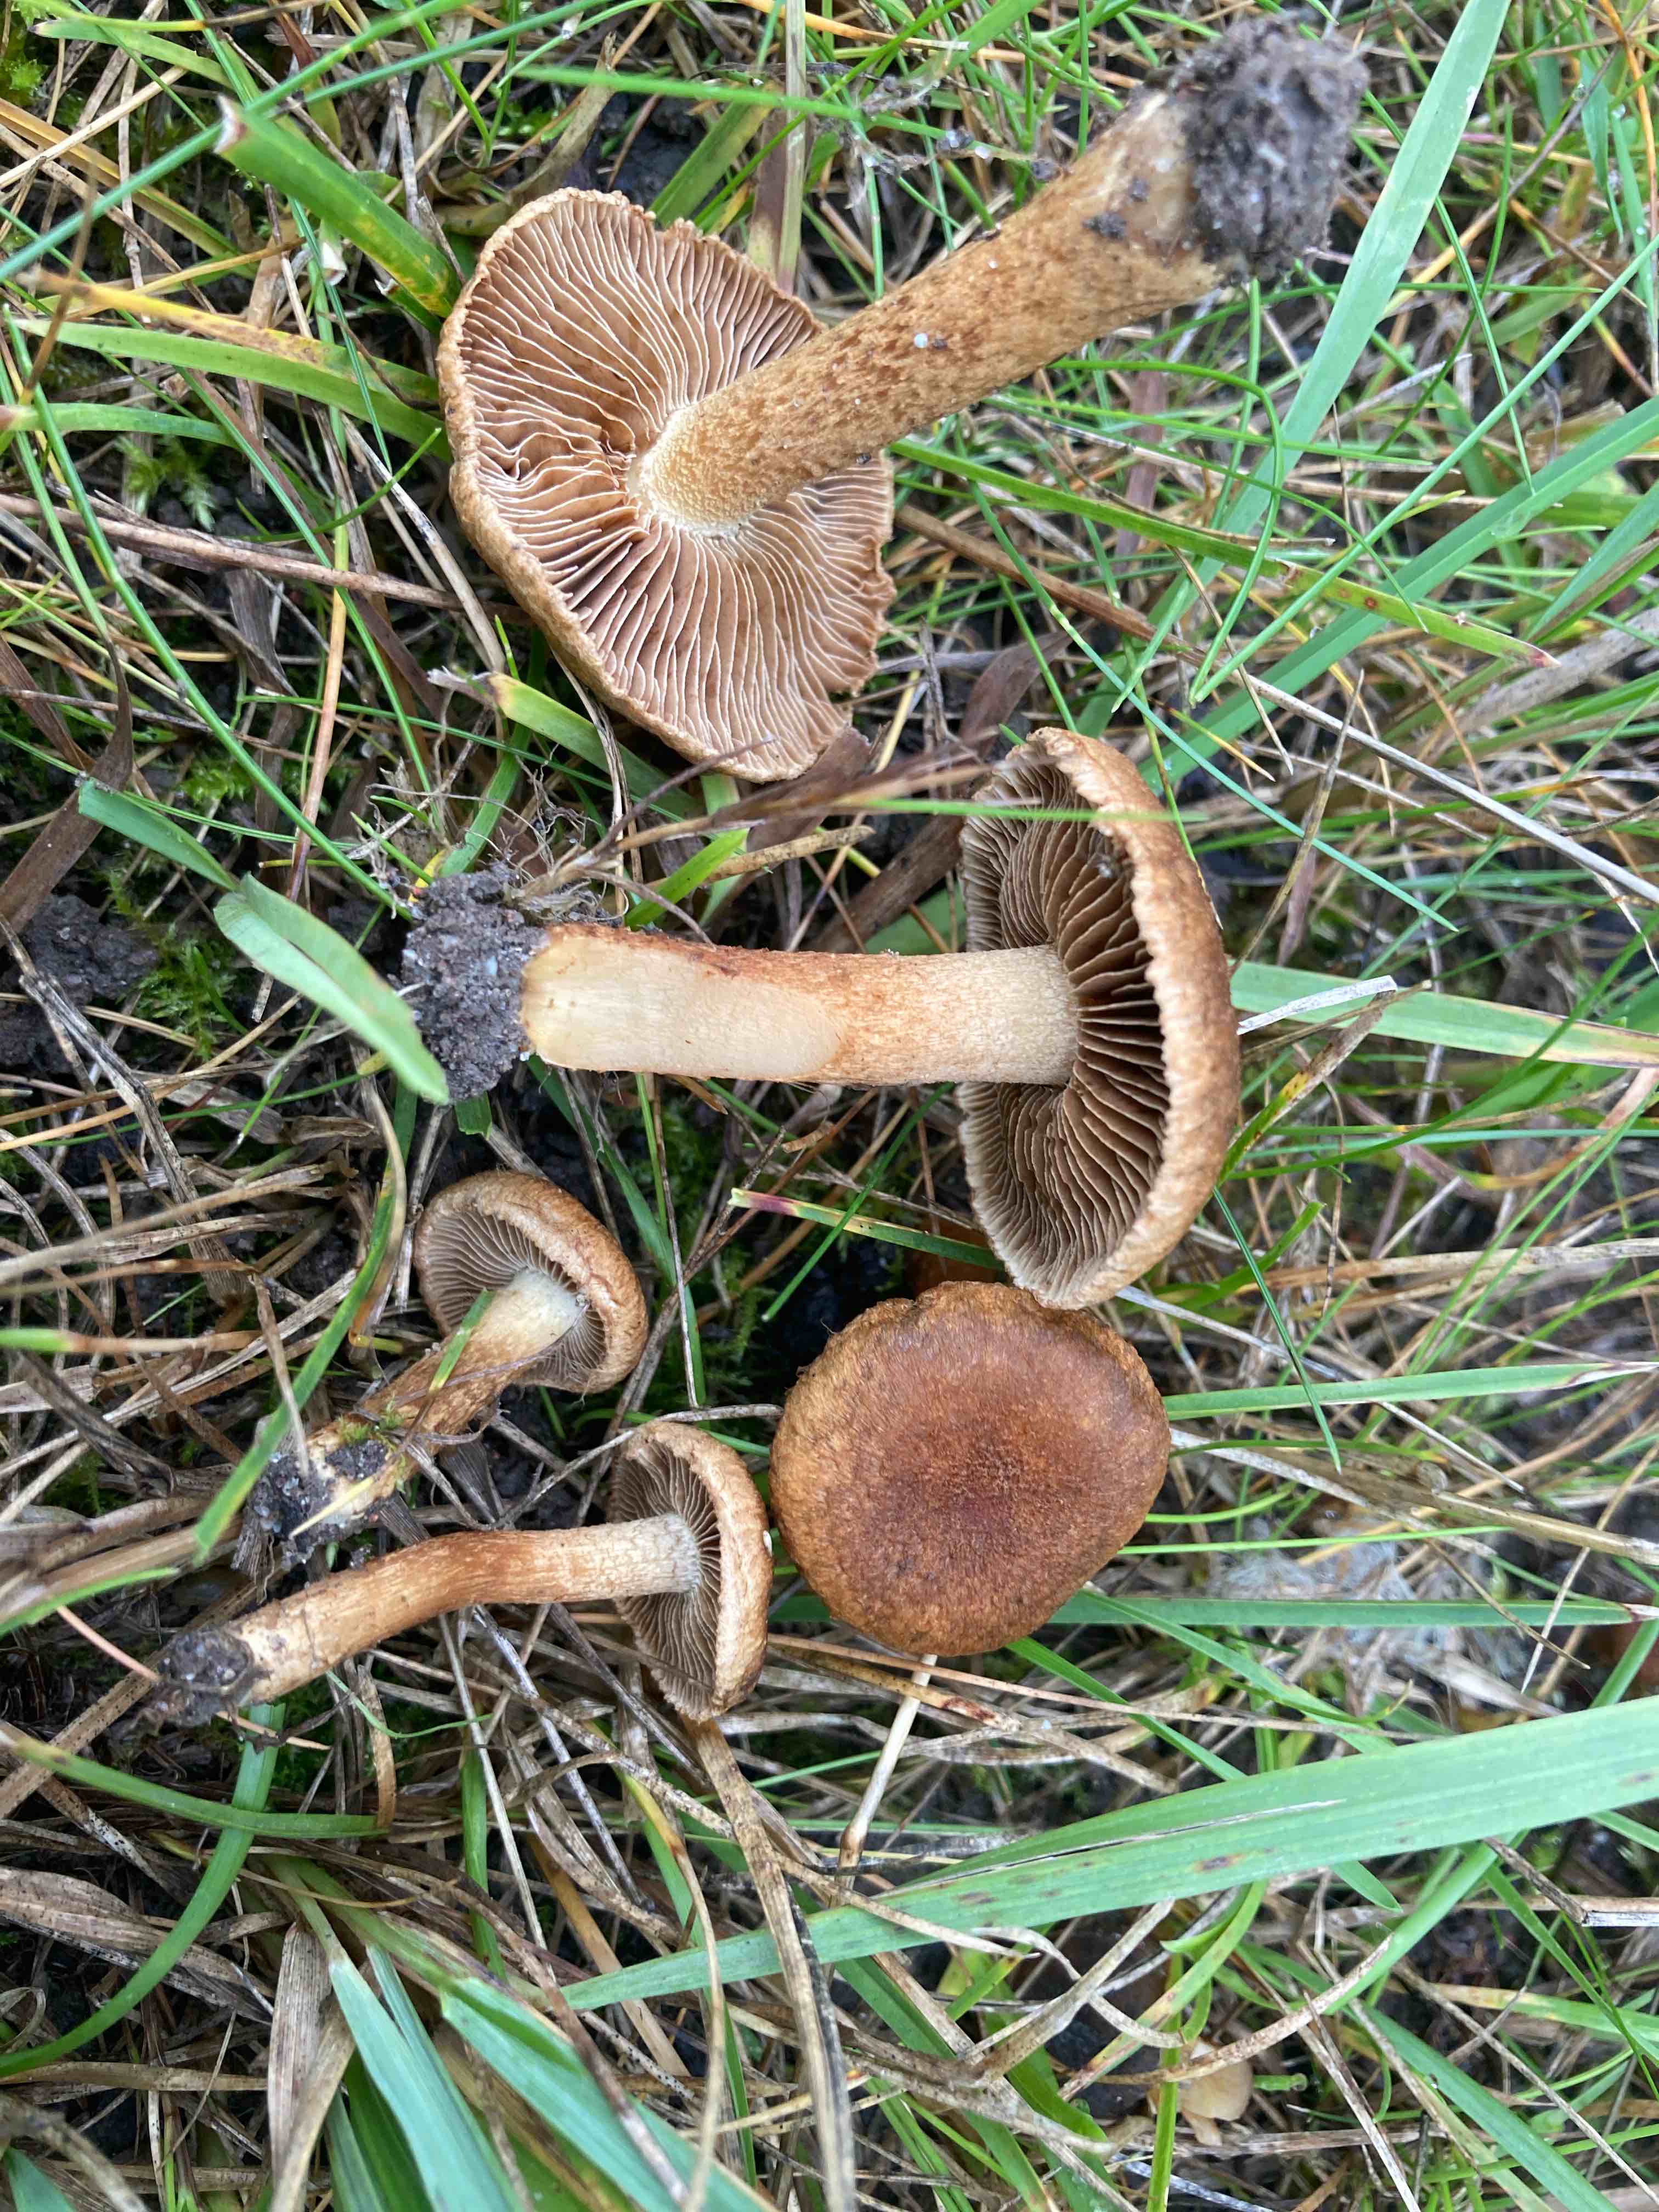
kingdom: Fungi
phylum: Basidiomycota
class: Agaricomycetes
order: Agaricales
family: Inocybaceae
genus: Inocybe
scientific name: Inocybe dulcamara
